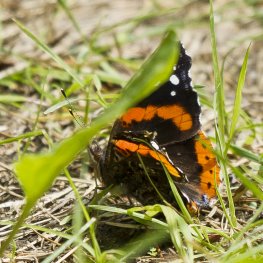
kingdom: Animalia
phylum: Arthropoda
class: Insecta
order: Lepidoptera
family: Nymphalidae
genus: Vanessa
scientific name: Vanessa atalanta
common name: Red Admiral
